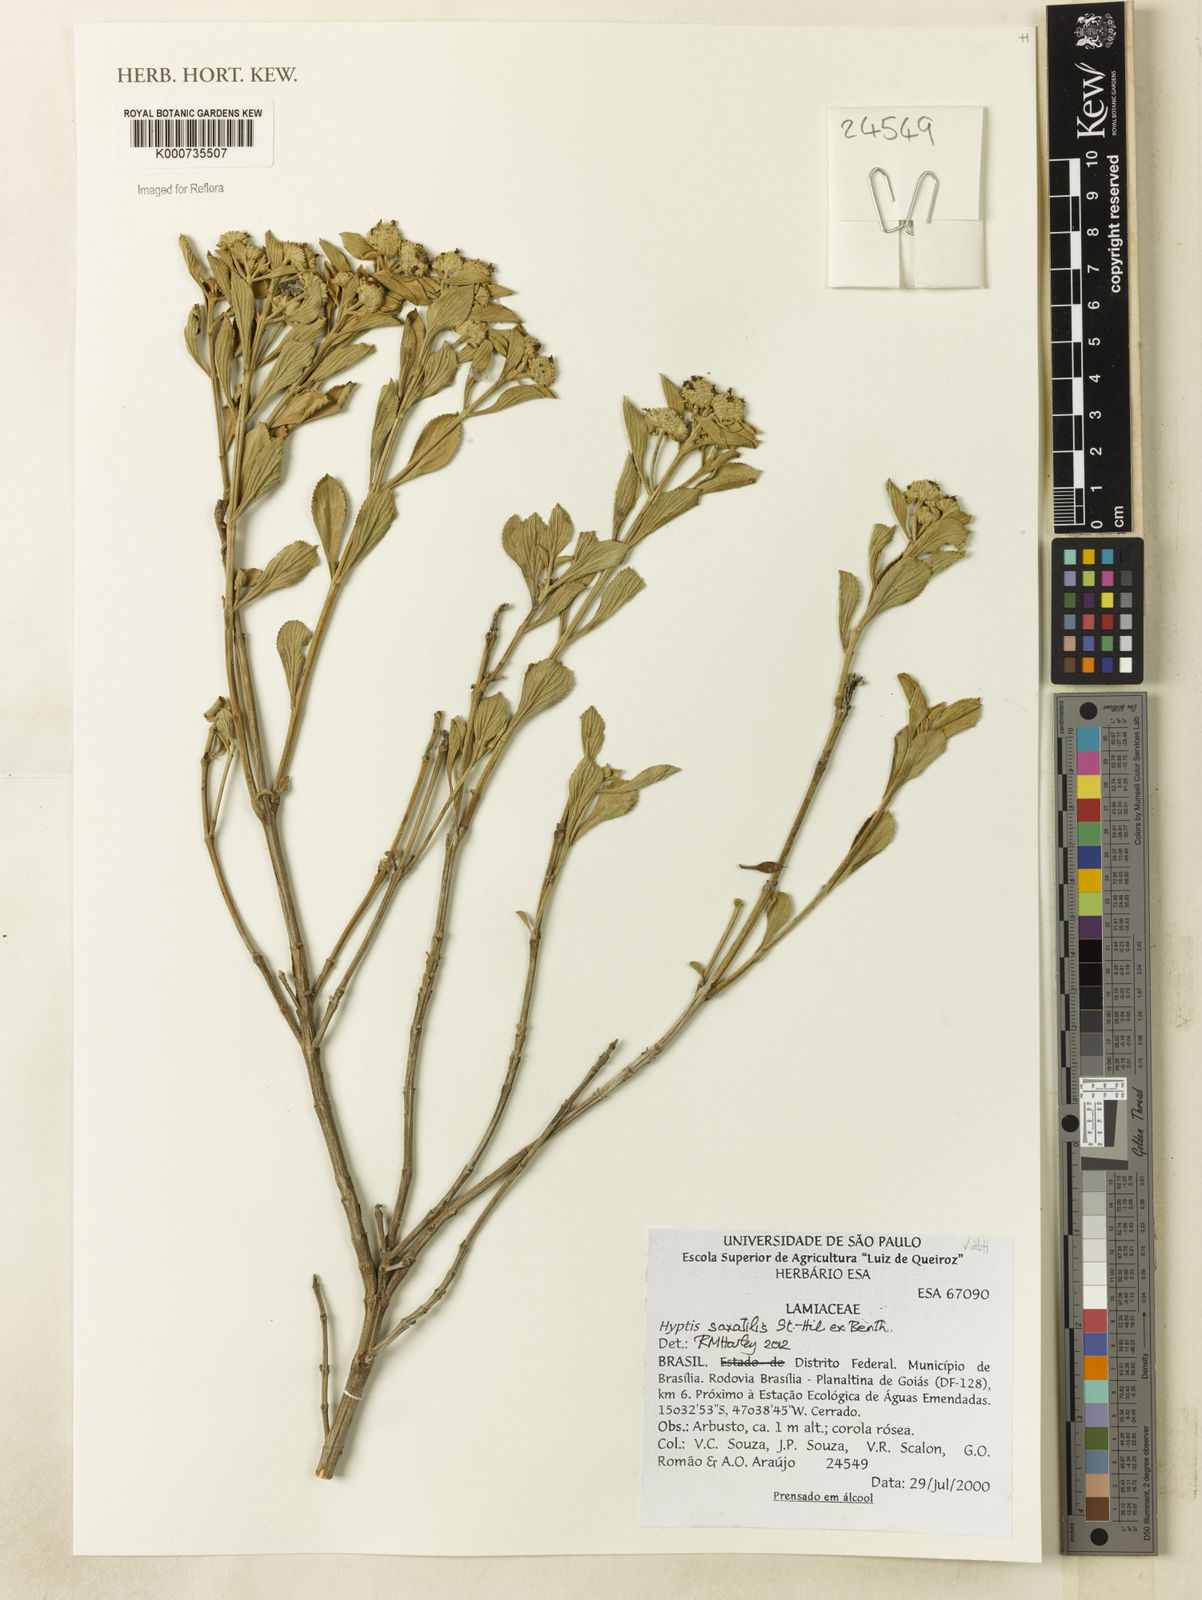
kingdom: Plantae
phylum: Tracheophyta
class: Magnoliopsida
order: Lamiales
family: Lamiaceae
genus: Hyptis
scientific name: Hyptis saxatilis
